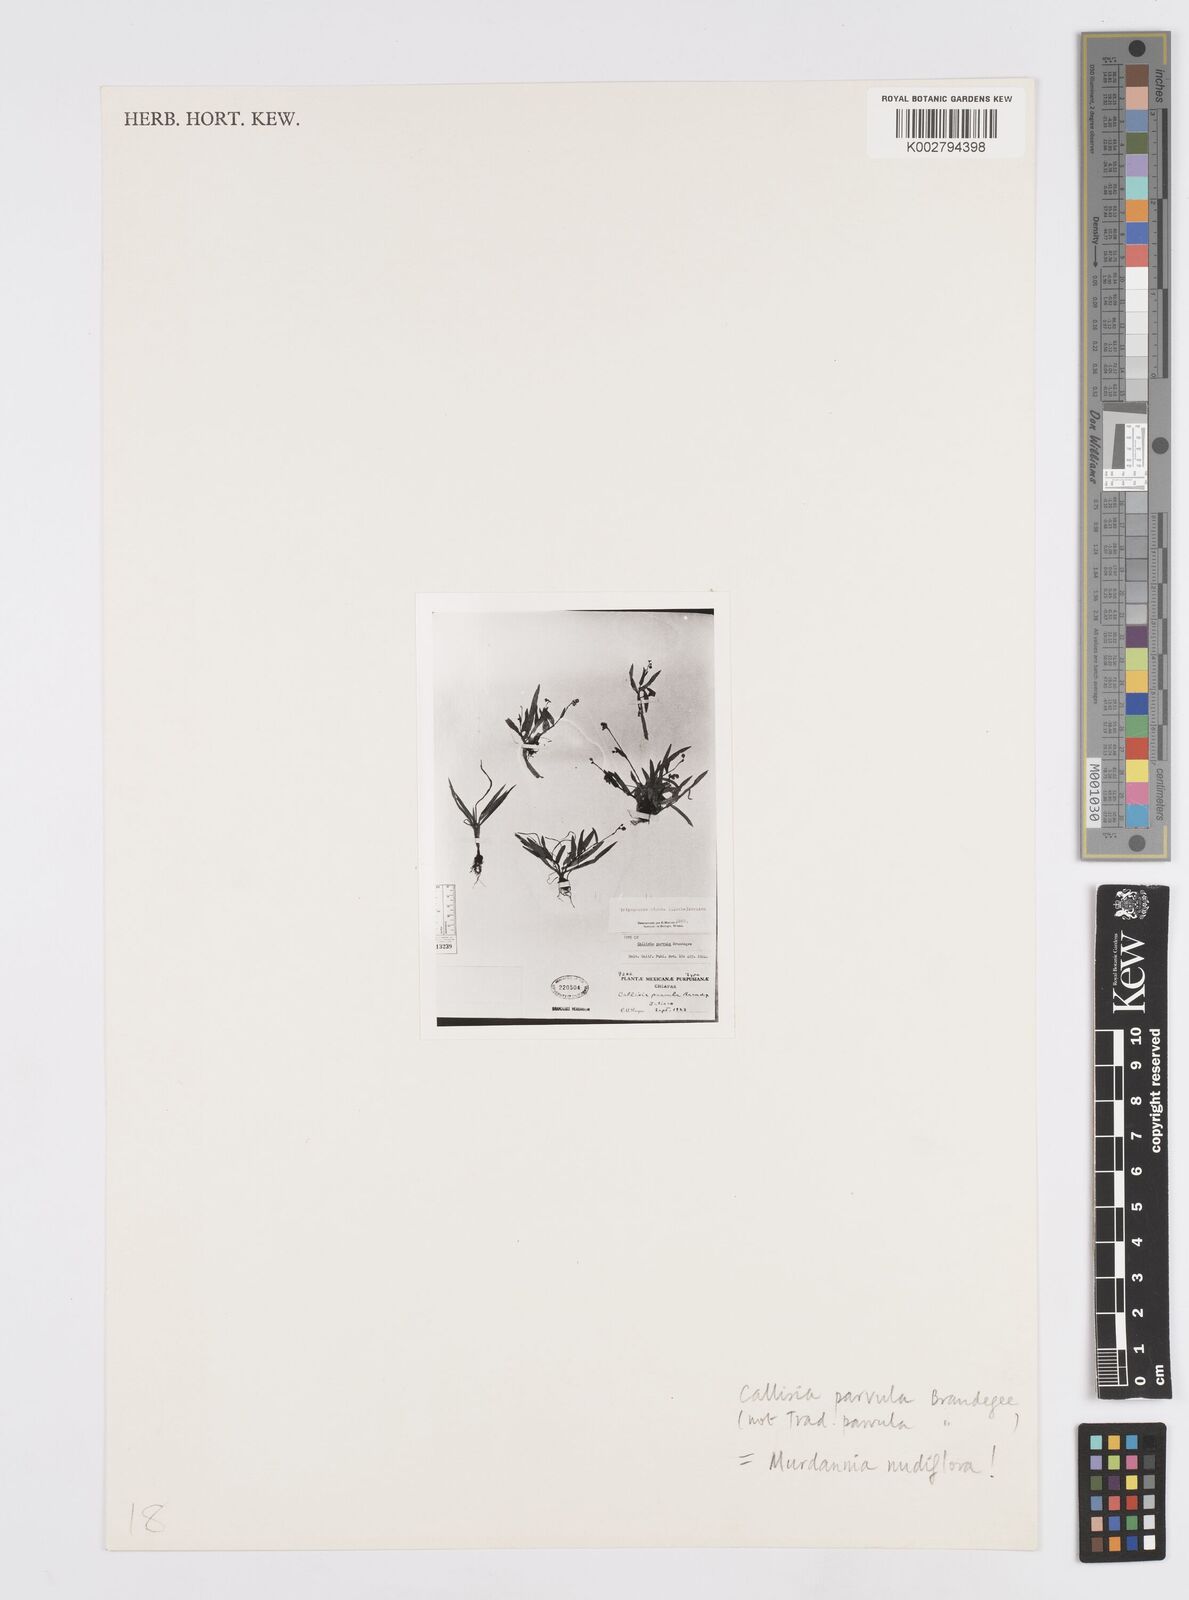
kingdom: Plantae
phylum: Tracheophyta
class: Liliopsida
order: Commelinales
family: Commelinaceae
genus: Murdannia
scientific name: Murdannia nudiflora
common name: Nakedstem dewflower
